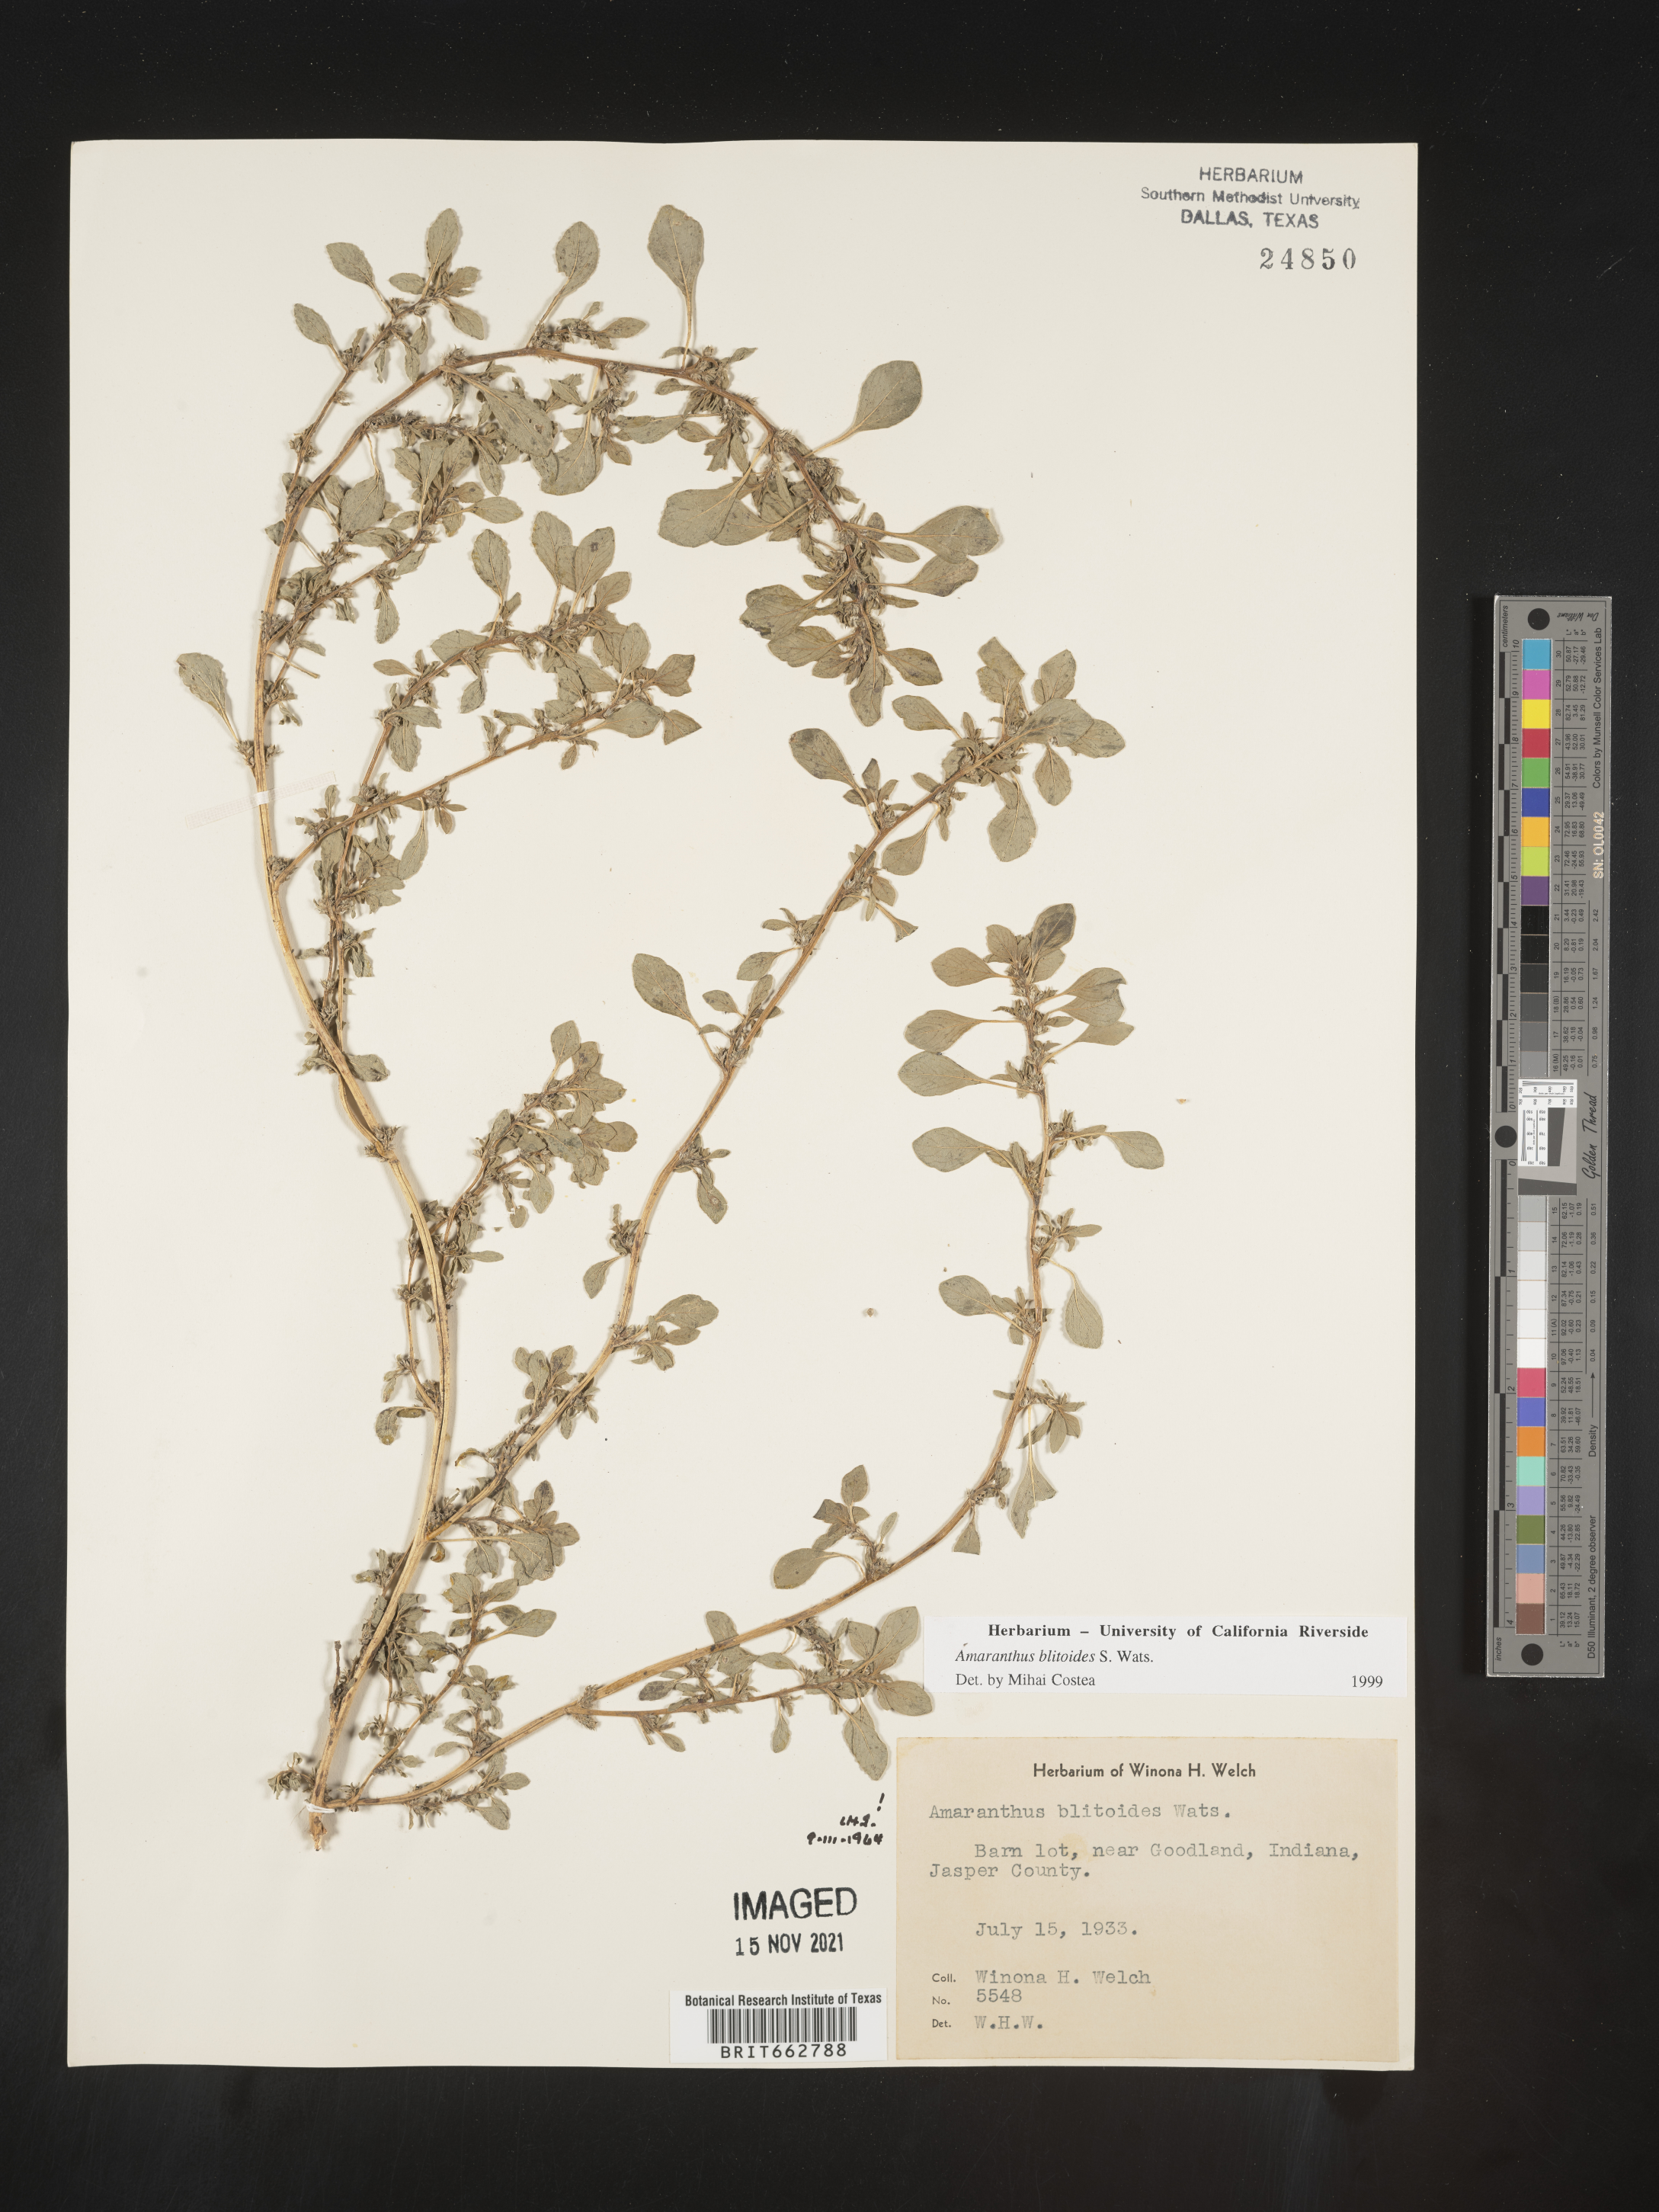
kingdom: Plantae
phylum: Tracheophyta
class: Magnoliopsida
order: Caryophyllales
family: Amaranthaceae
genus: Amaranthus
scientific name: Amaranthus blitoides
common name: Prostrate pigweed
